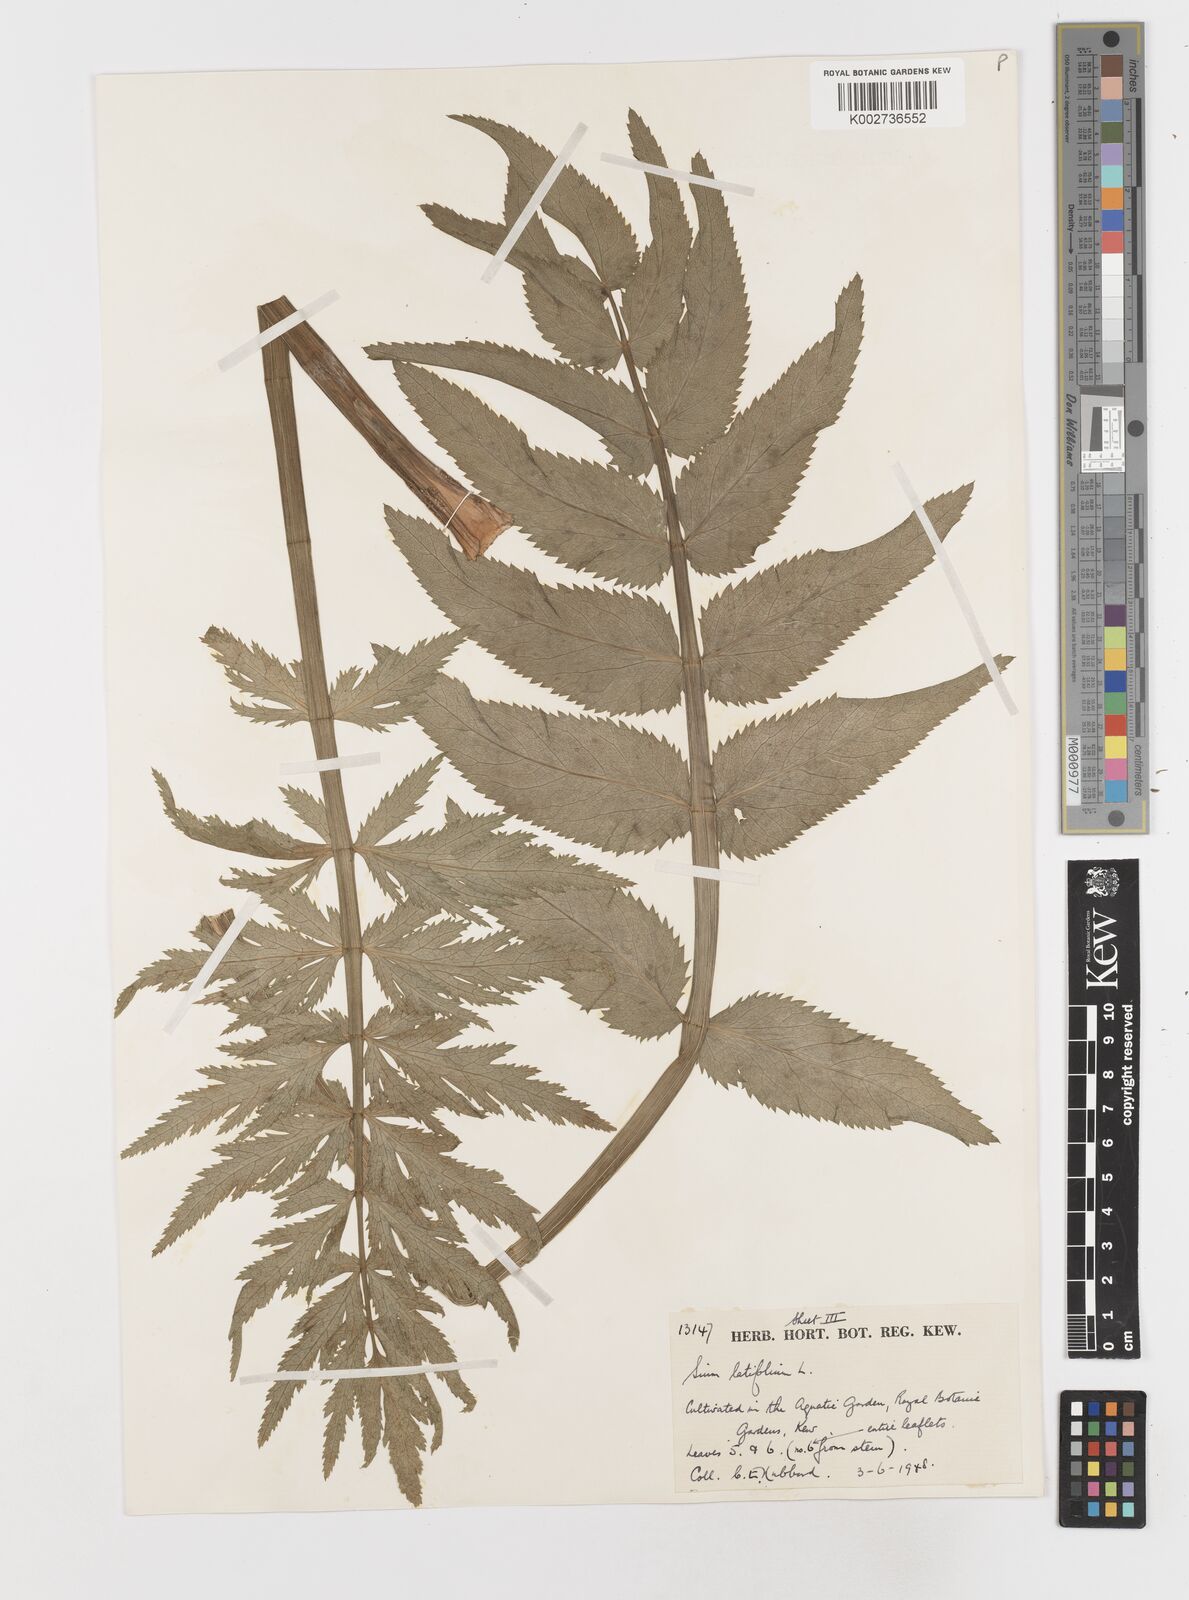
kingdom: Plantae
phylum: Tracheophyta
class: Magnoliopsida
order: Apiales
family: Apiaceae
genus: Sium
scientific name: Sium latifolium
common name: Greater water-parsnip
